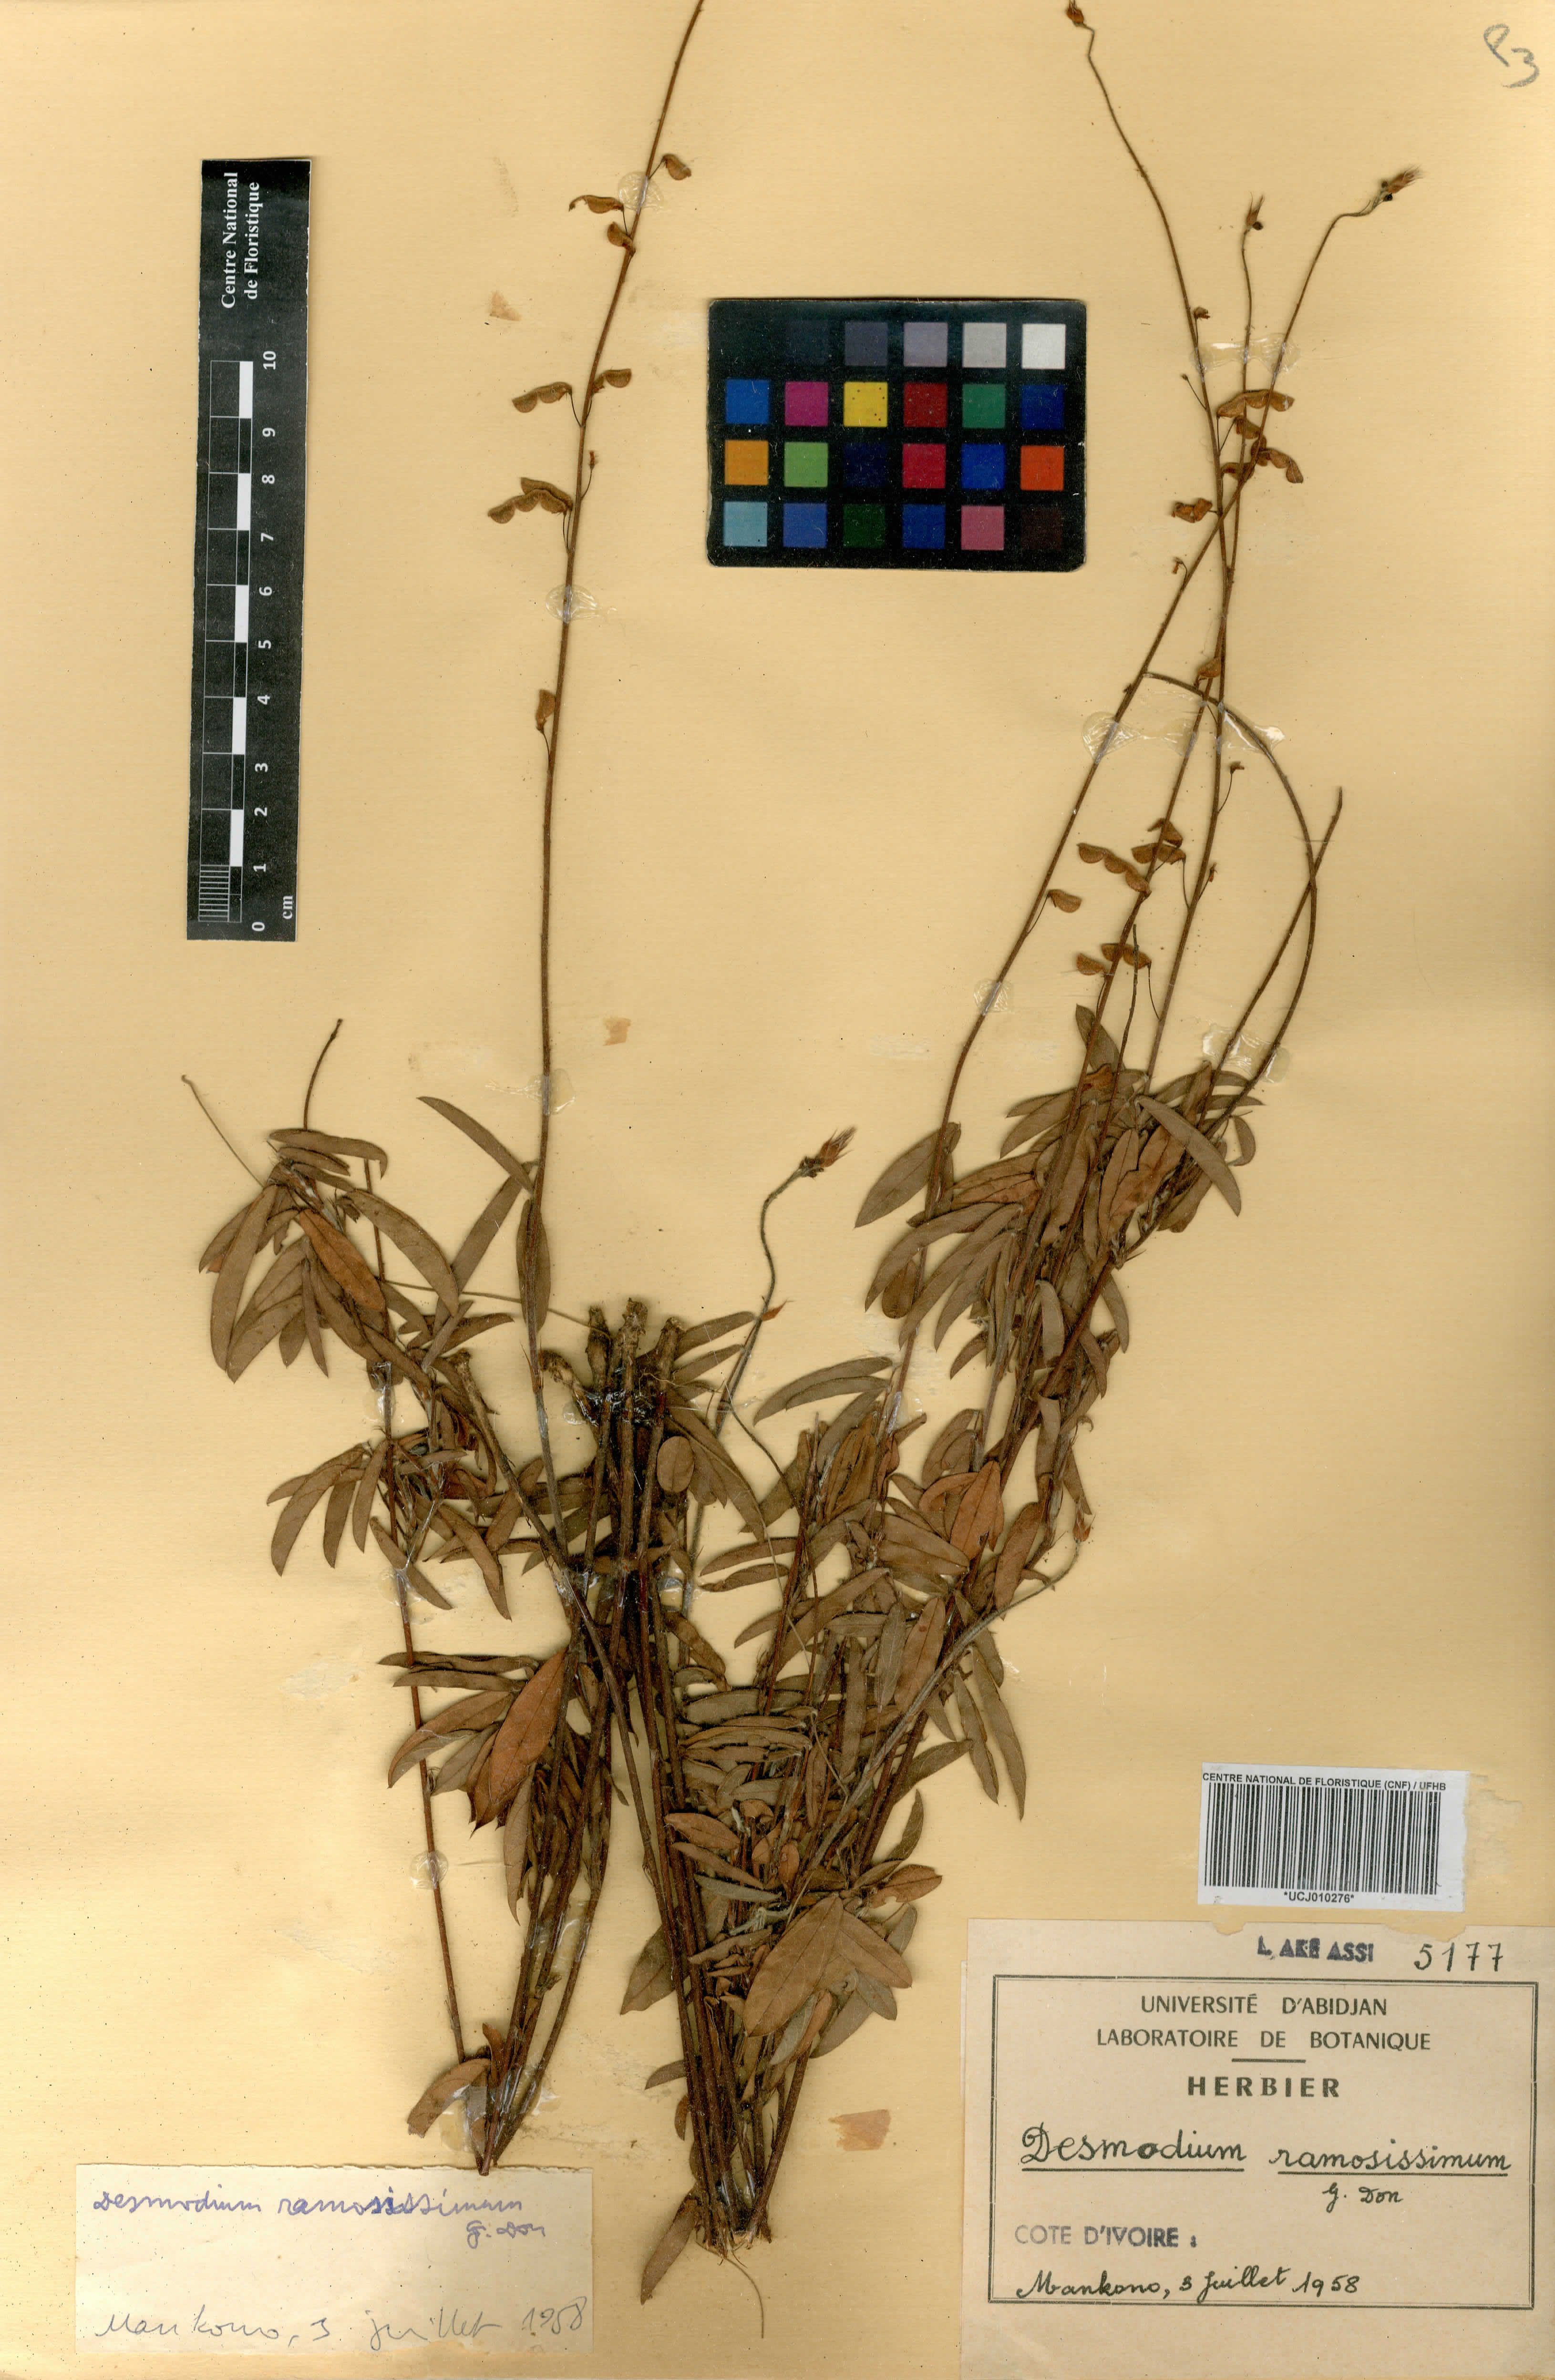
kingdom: Plantae
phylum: Tracheophyta
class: Magnoliopsida
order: Fabales
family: Fabaceae
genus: Grona
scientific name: Grona ramosissima
